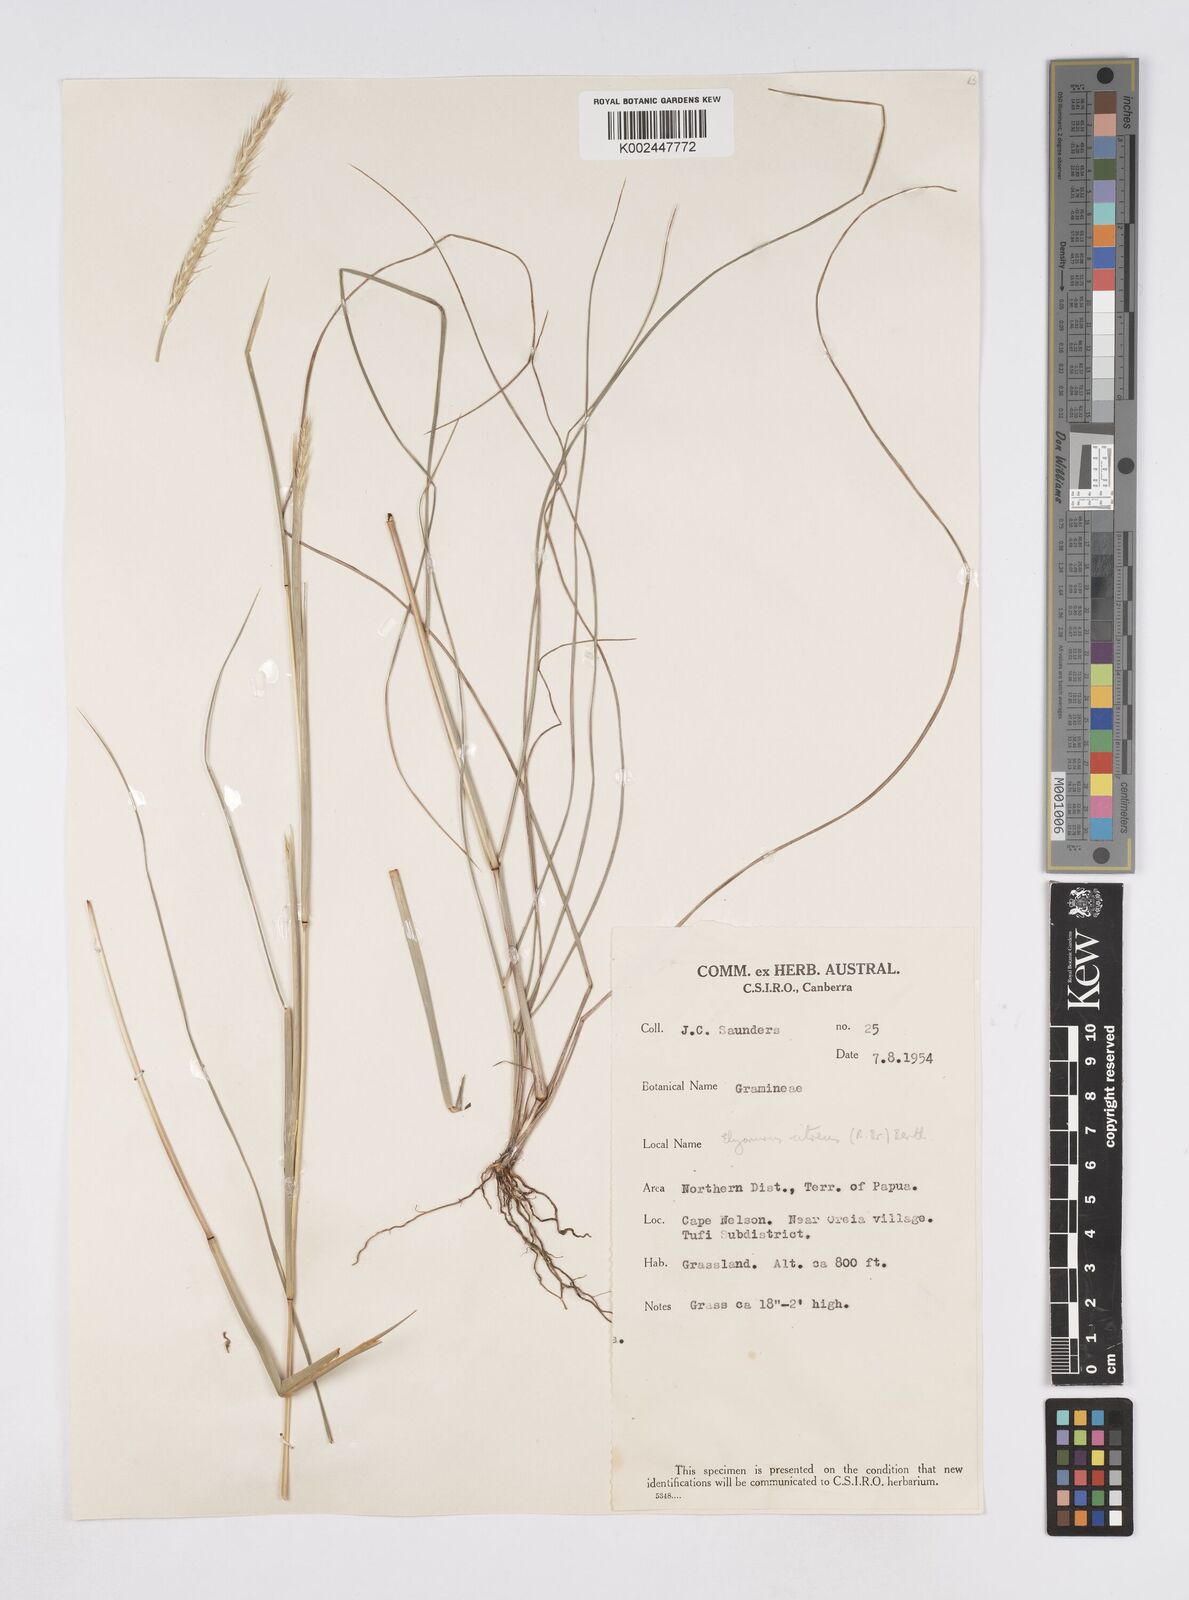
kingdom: Plantae
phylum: Tracheophyta
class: Liliopsida
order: Poales
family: Poaceae
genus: Elionurus
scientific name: Elionurus citreus
